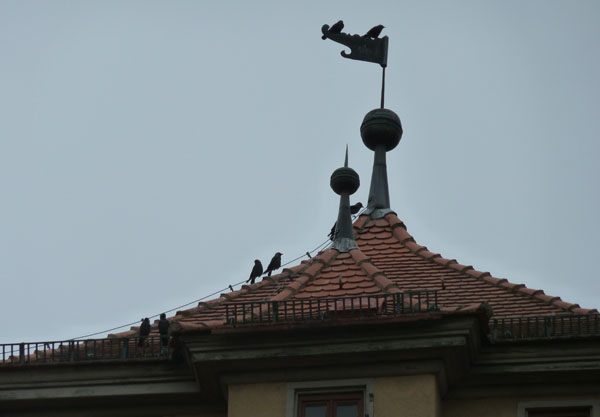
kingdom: Animalia
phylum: Chordata
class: Aves
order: Passeriformes
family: Corvidae
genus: Coloeus
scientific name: Coloeus monedula
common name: Western jackdaw
